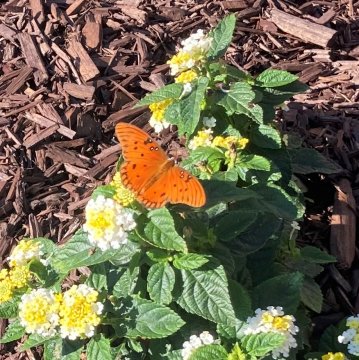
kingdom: Animalia
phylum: Arthropoda
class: Insecta
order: Lepidoptera
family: Nymphalidae
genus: Dione
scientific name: Dione vanillae
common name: Gulf Fritillary
